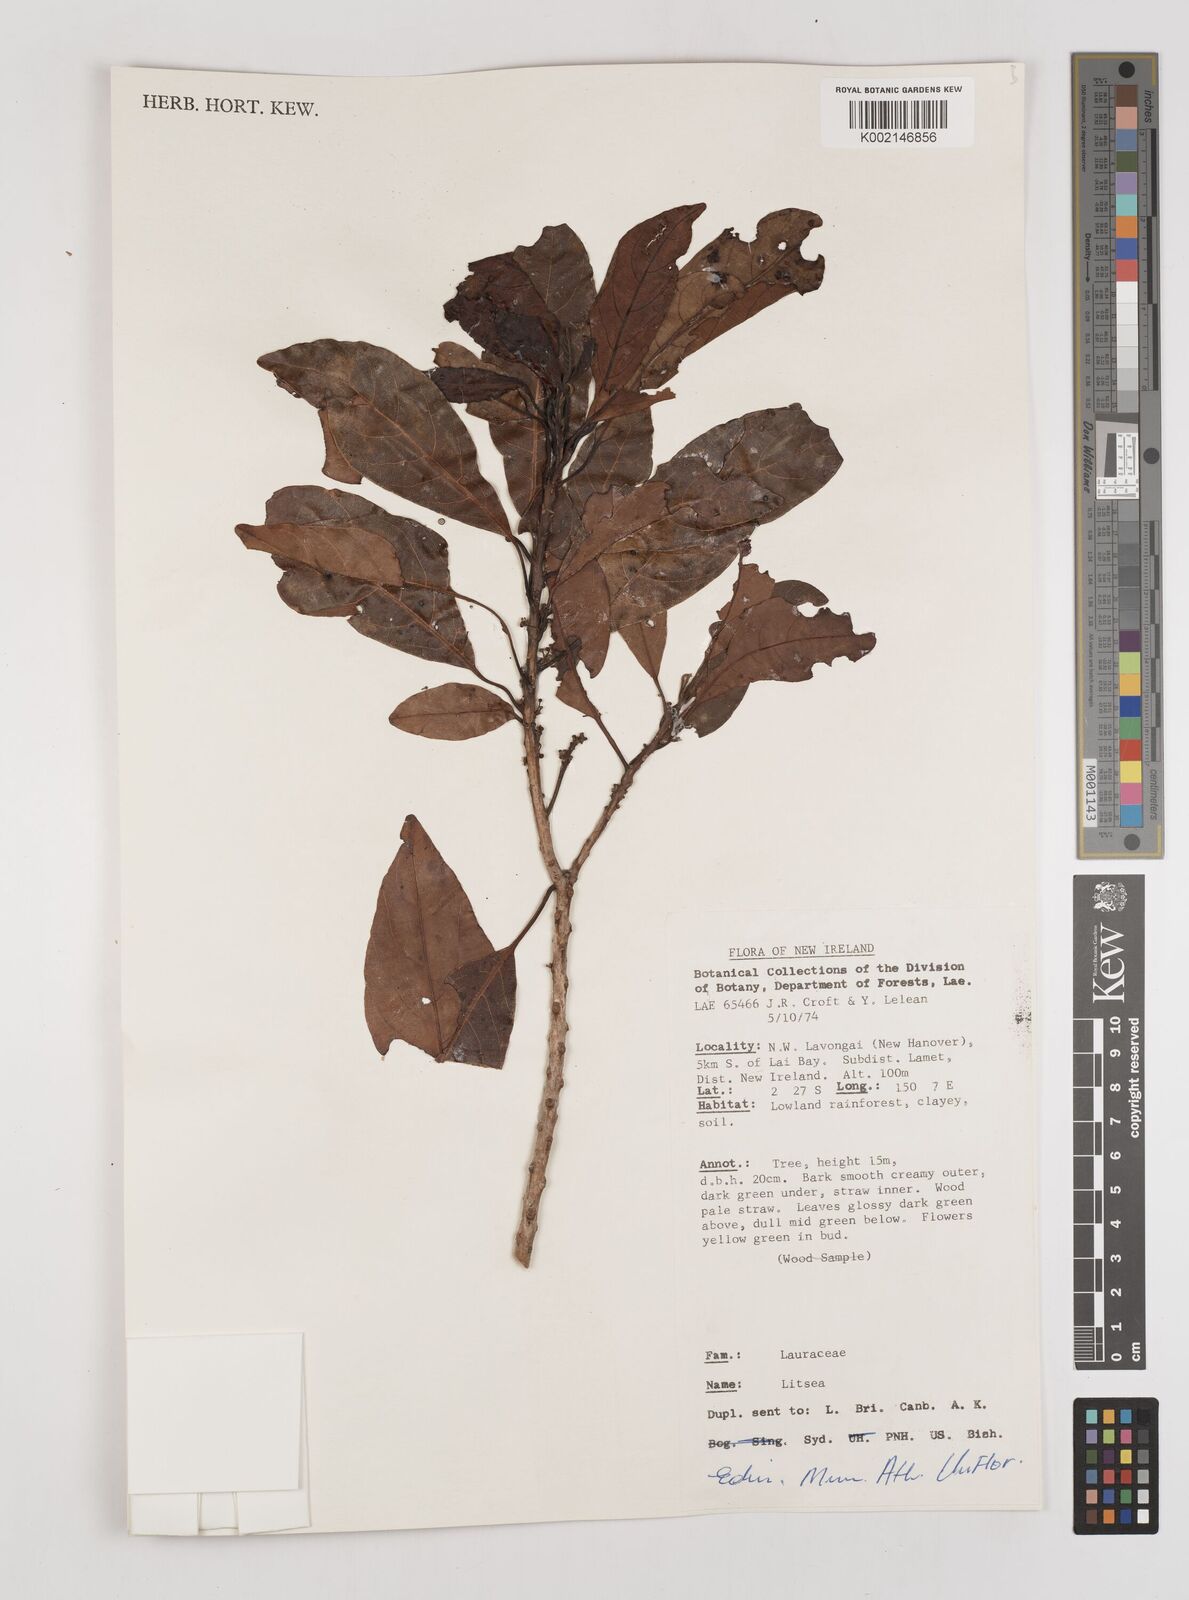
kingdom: Plantae
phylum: Tracheophyta
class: Magnoliopsida
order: Laurales
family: Lauraceae
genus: Litsea
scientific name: Litsea
